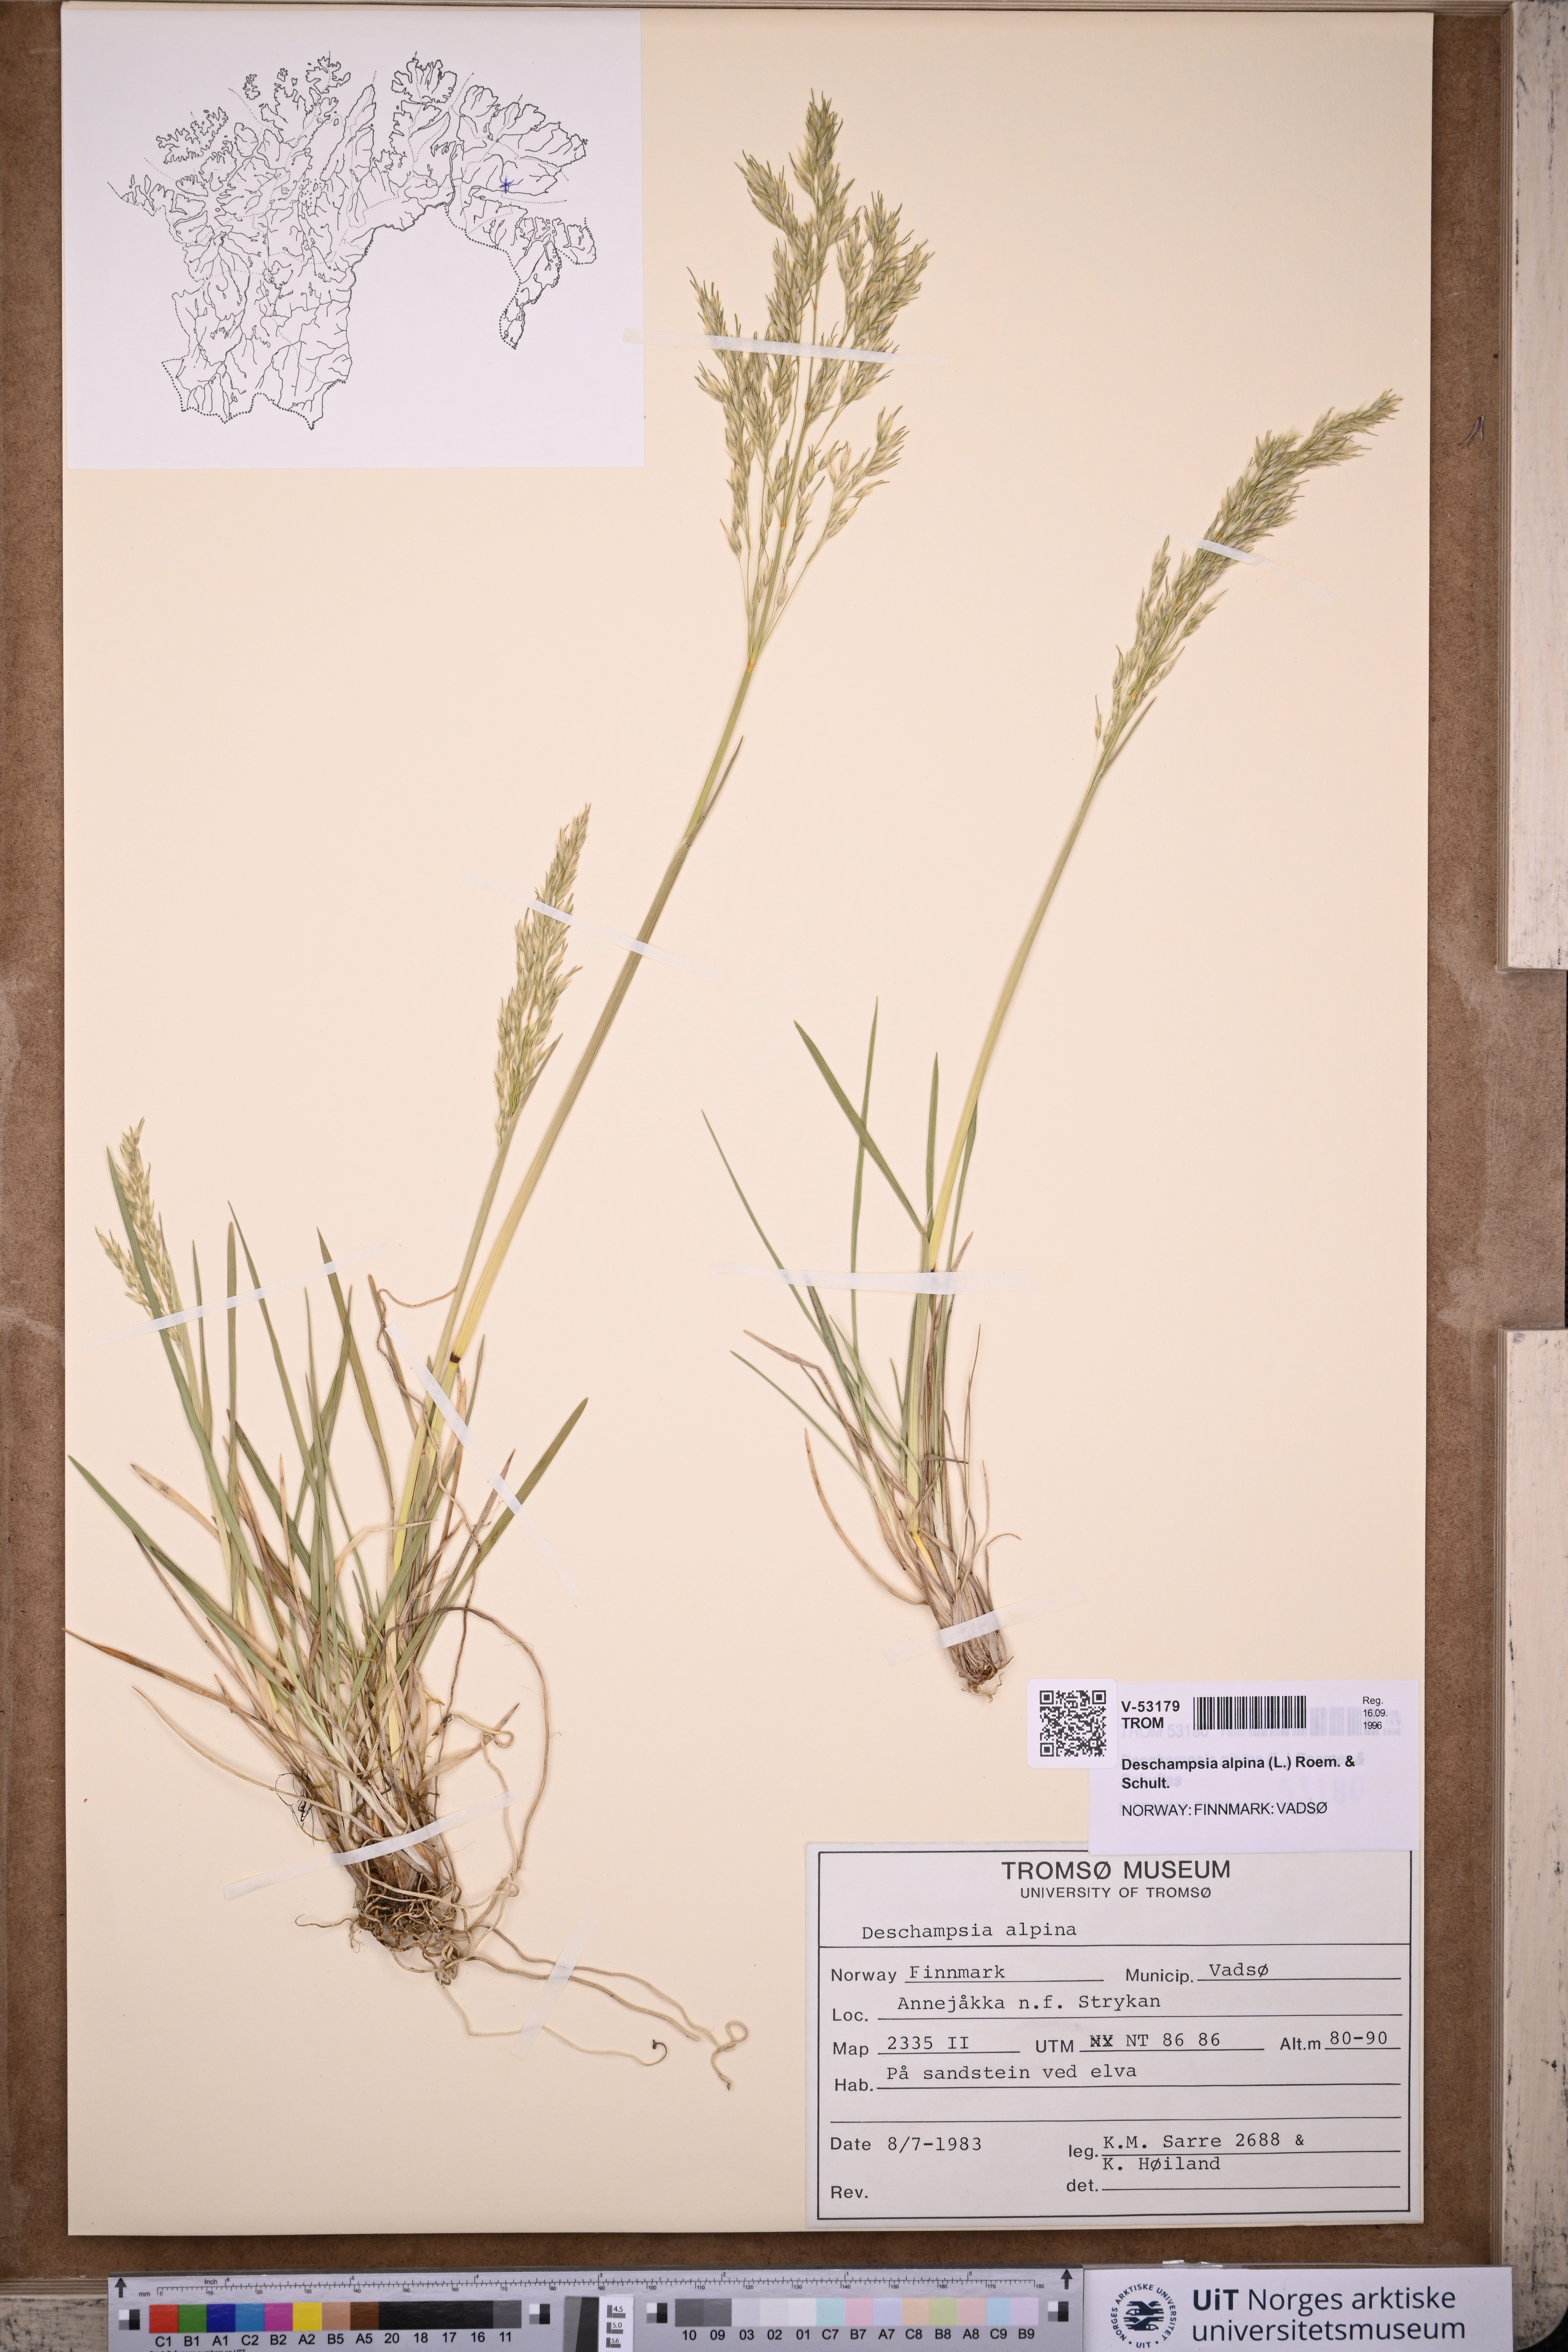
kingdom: Plantae
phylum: Tracheophyta
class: Liliopsida
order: Poales
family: Poaceae
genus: Deschampsia
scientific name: Deschampsia cespitosa
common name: Tufted hair-grass
